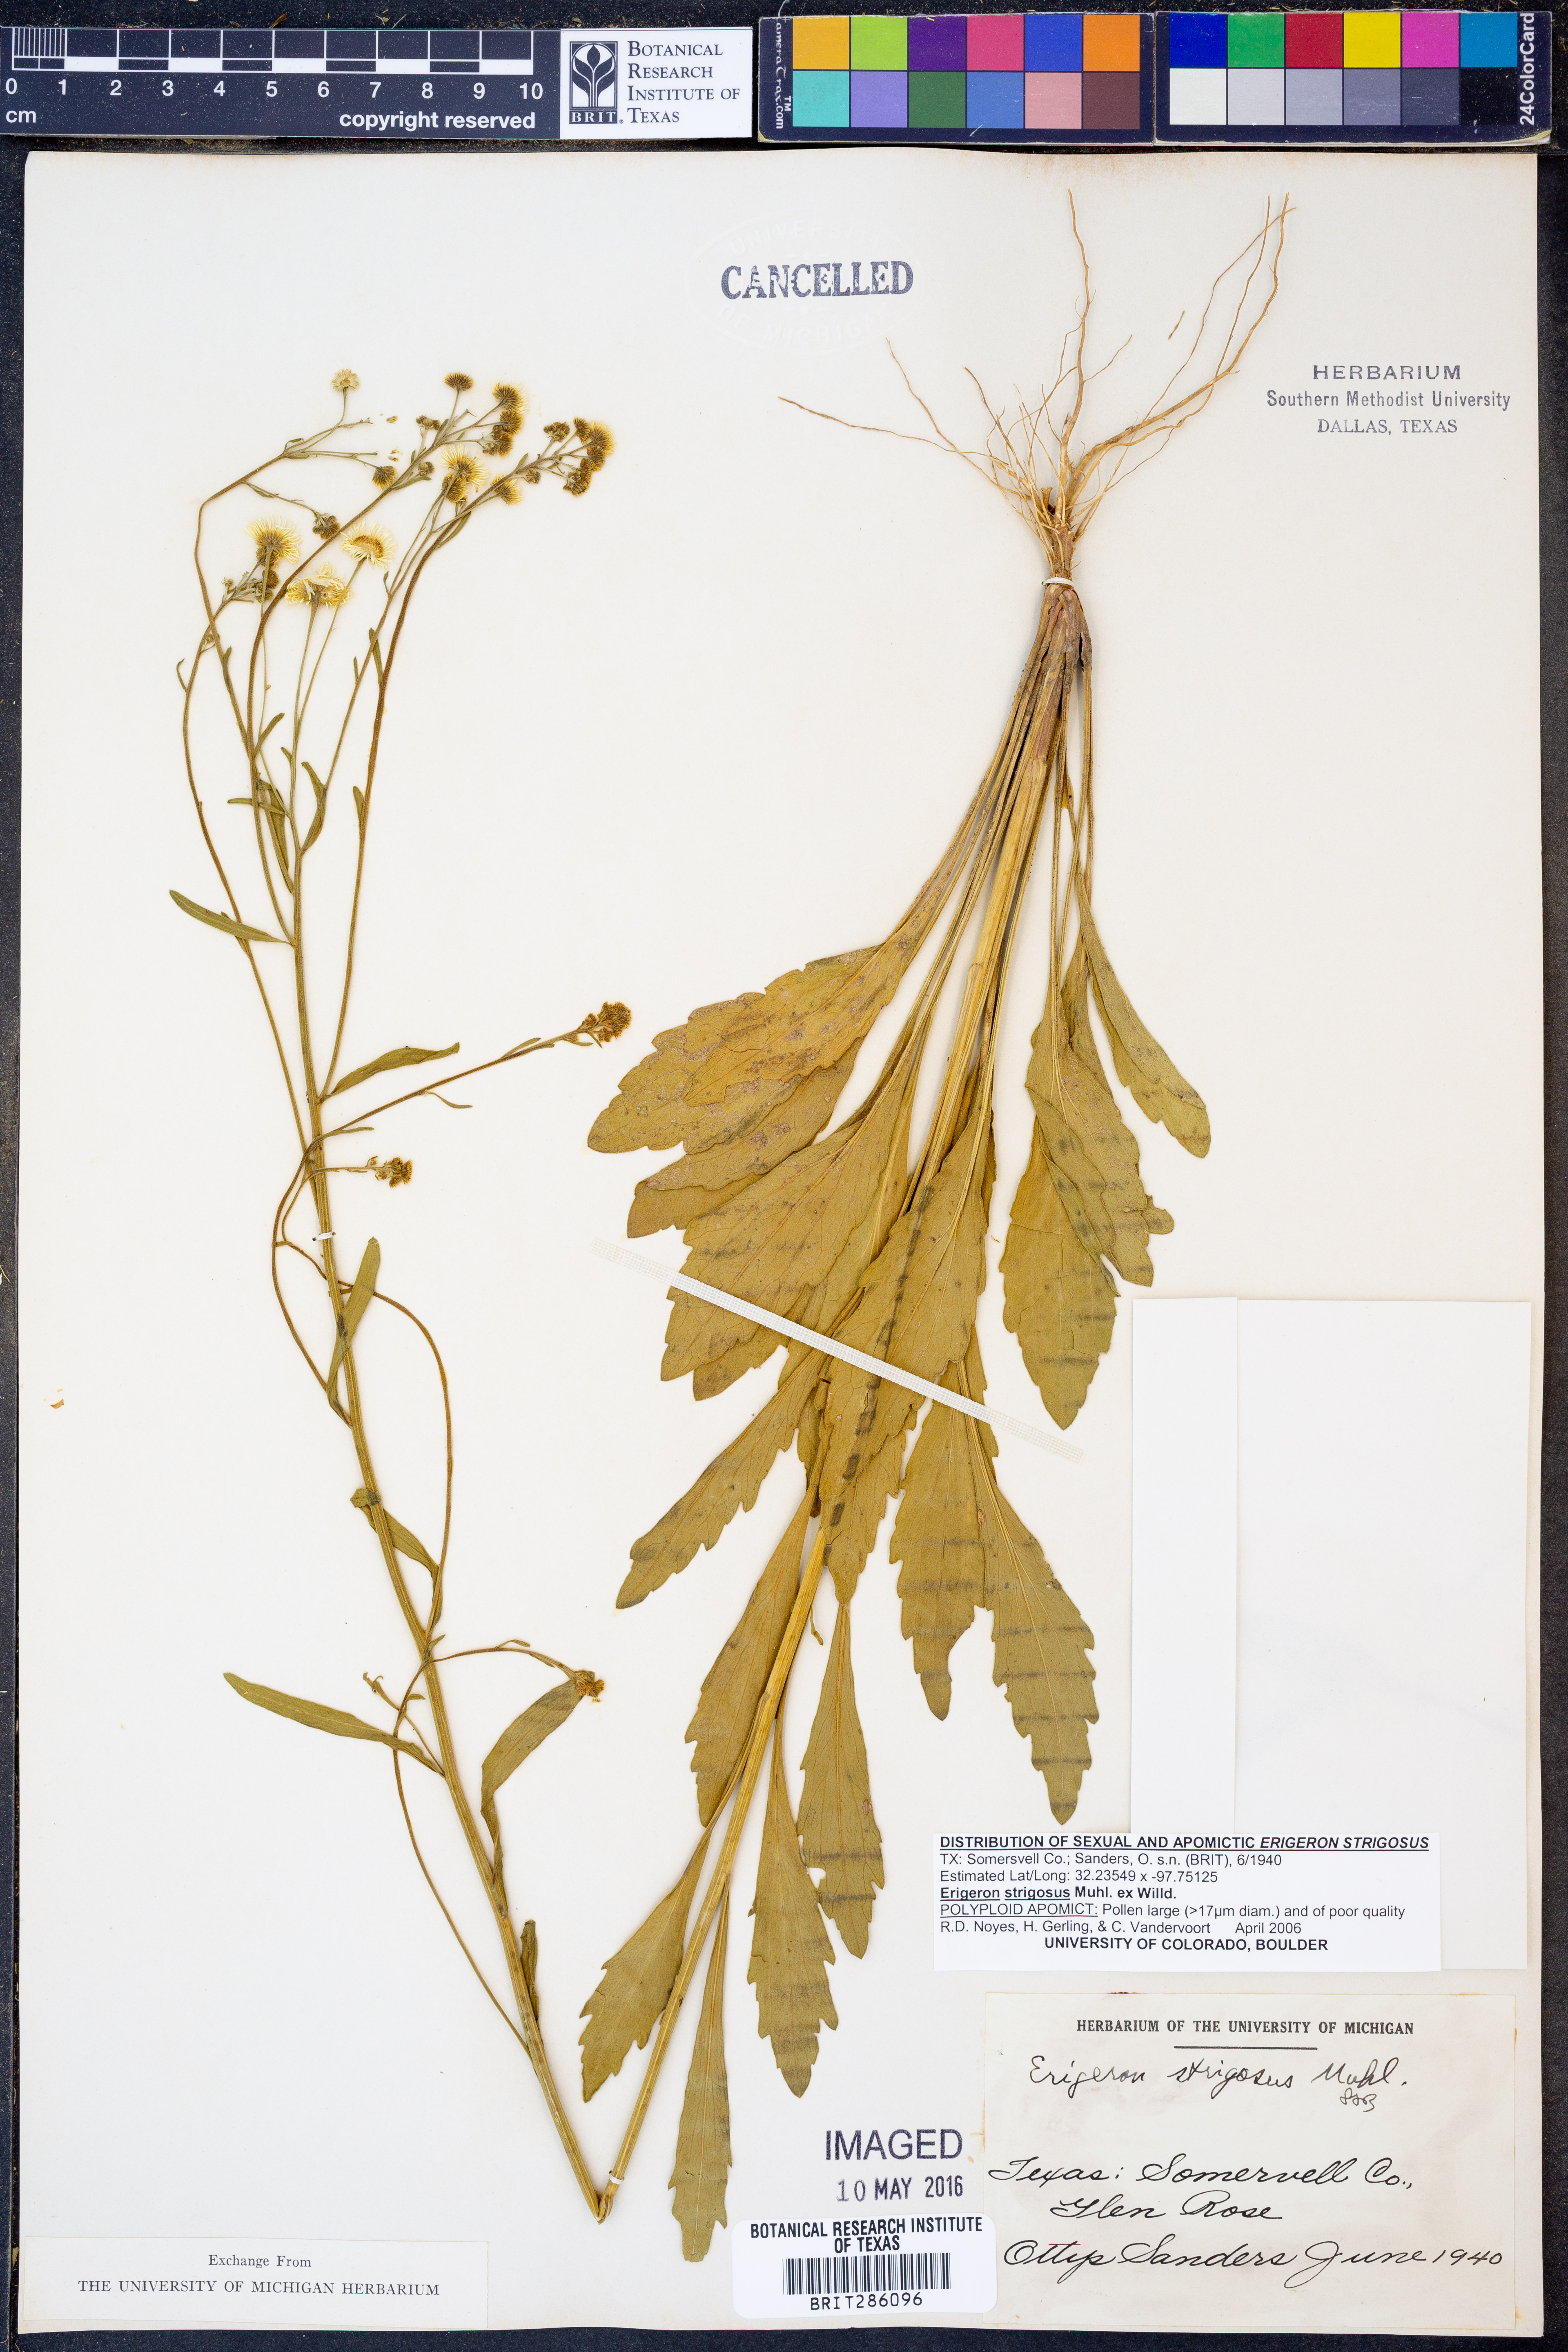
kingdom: Plantae
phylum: Tracheophyta
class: Magnoliopsida
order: Asterales
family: Asteraceae
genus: Erigeron
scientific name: Erigeron strigosus
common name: Common eastern fleabane
